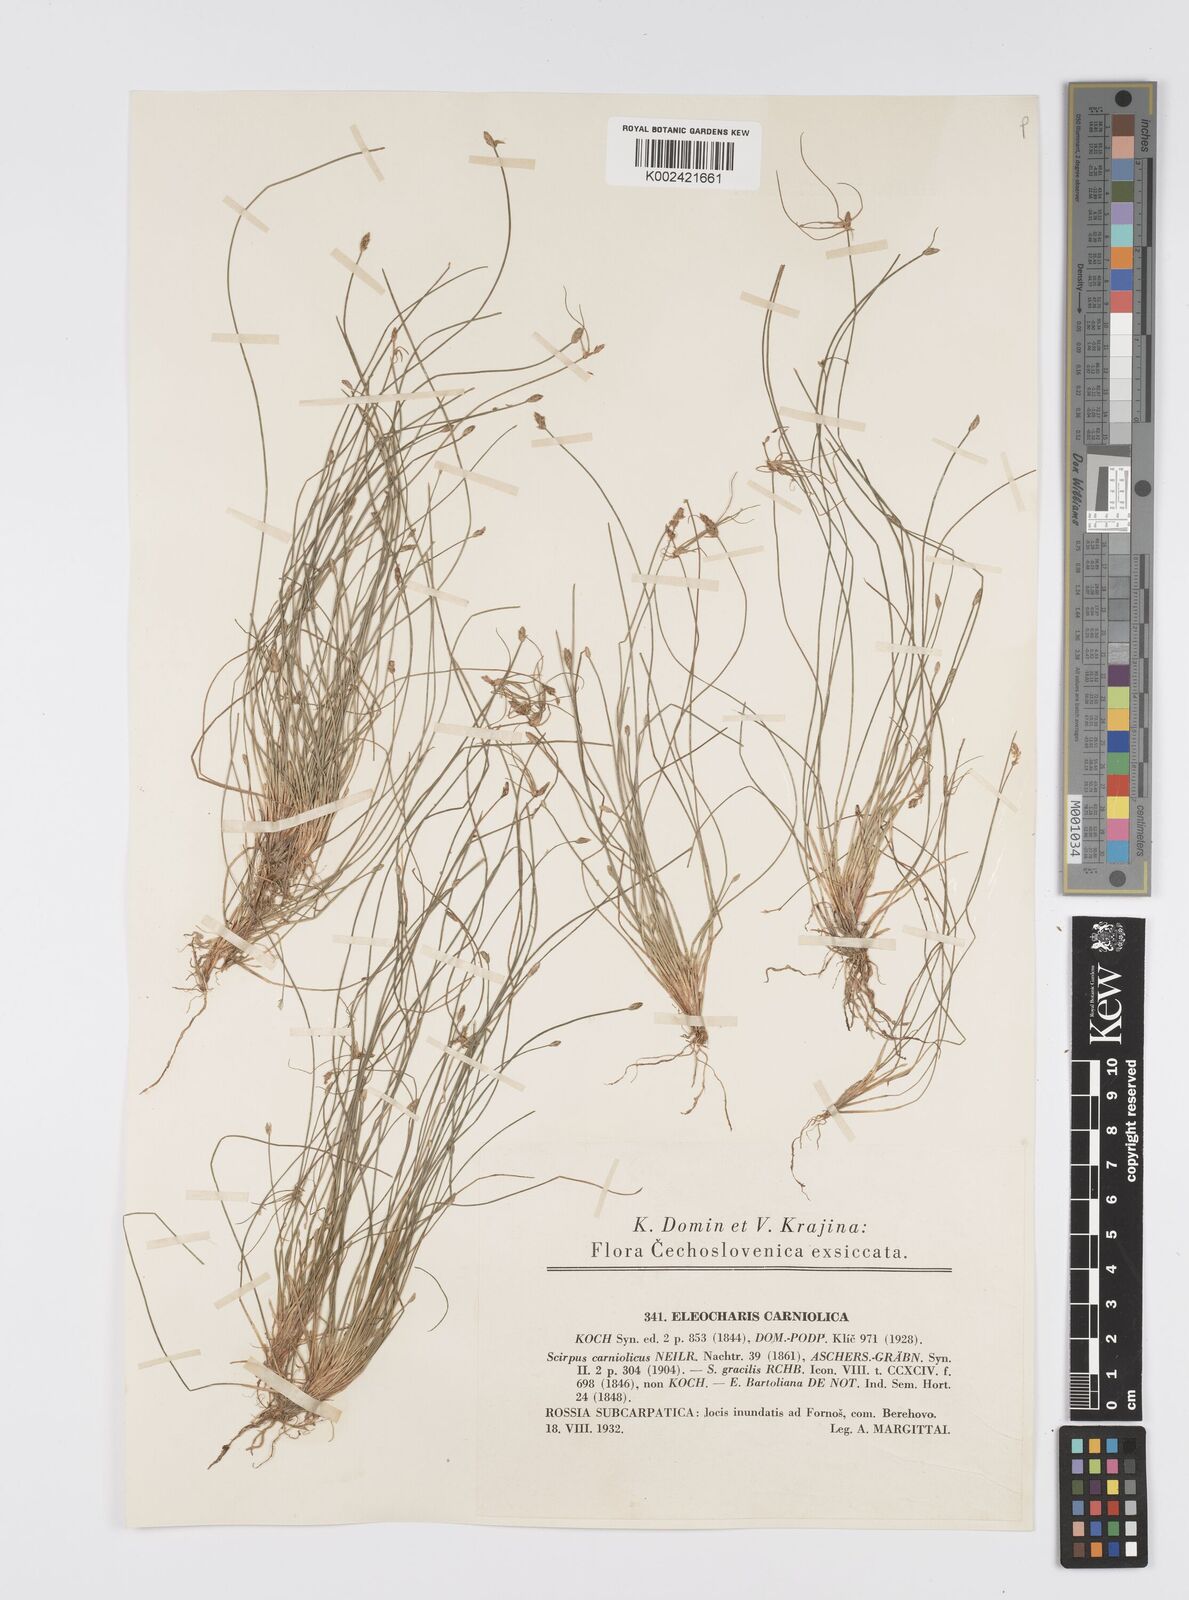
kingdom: Plantae
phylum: Tracheophyta
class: Liliopsida
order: Poales
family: Cyperaceae
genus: Eleocharis
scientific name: Eleocharis carniolica
